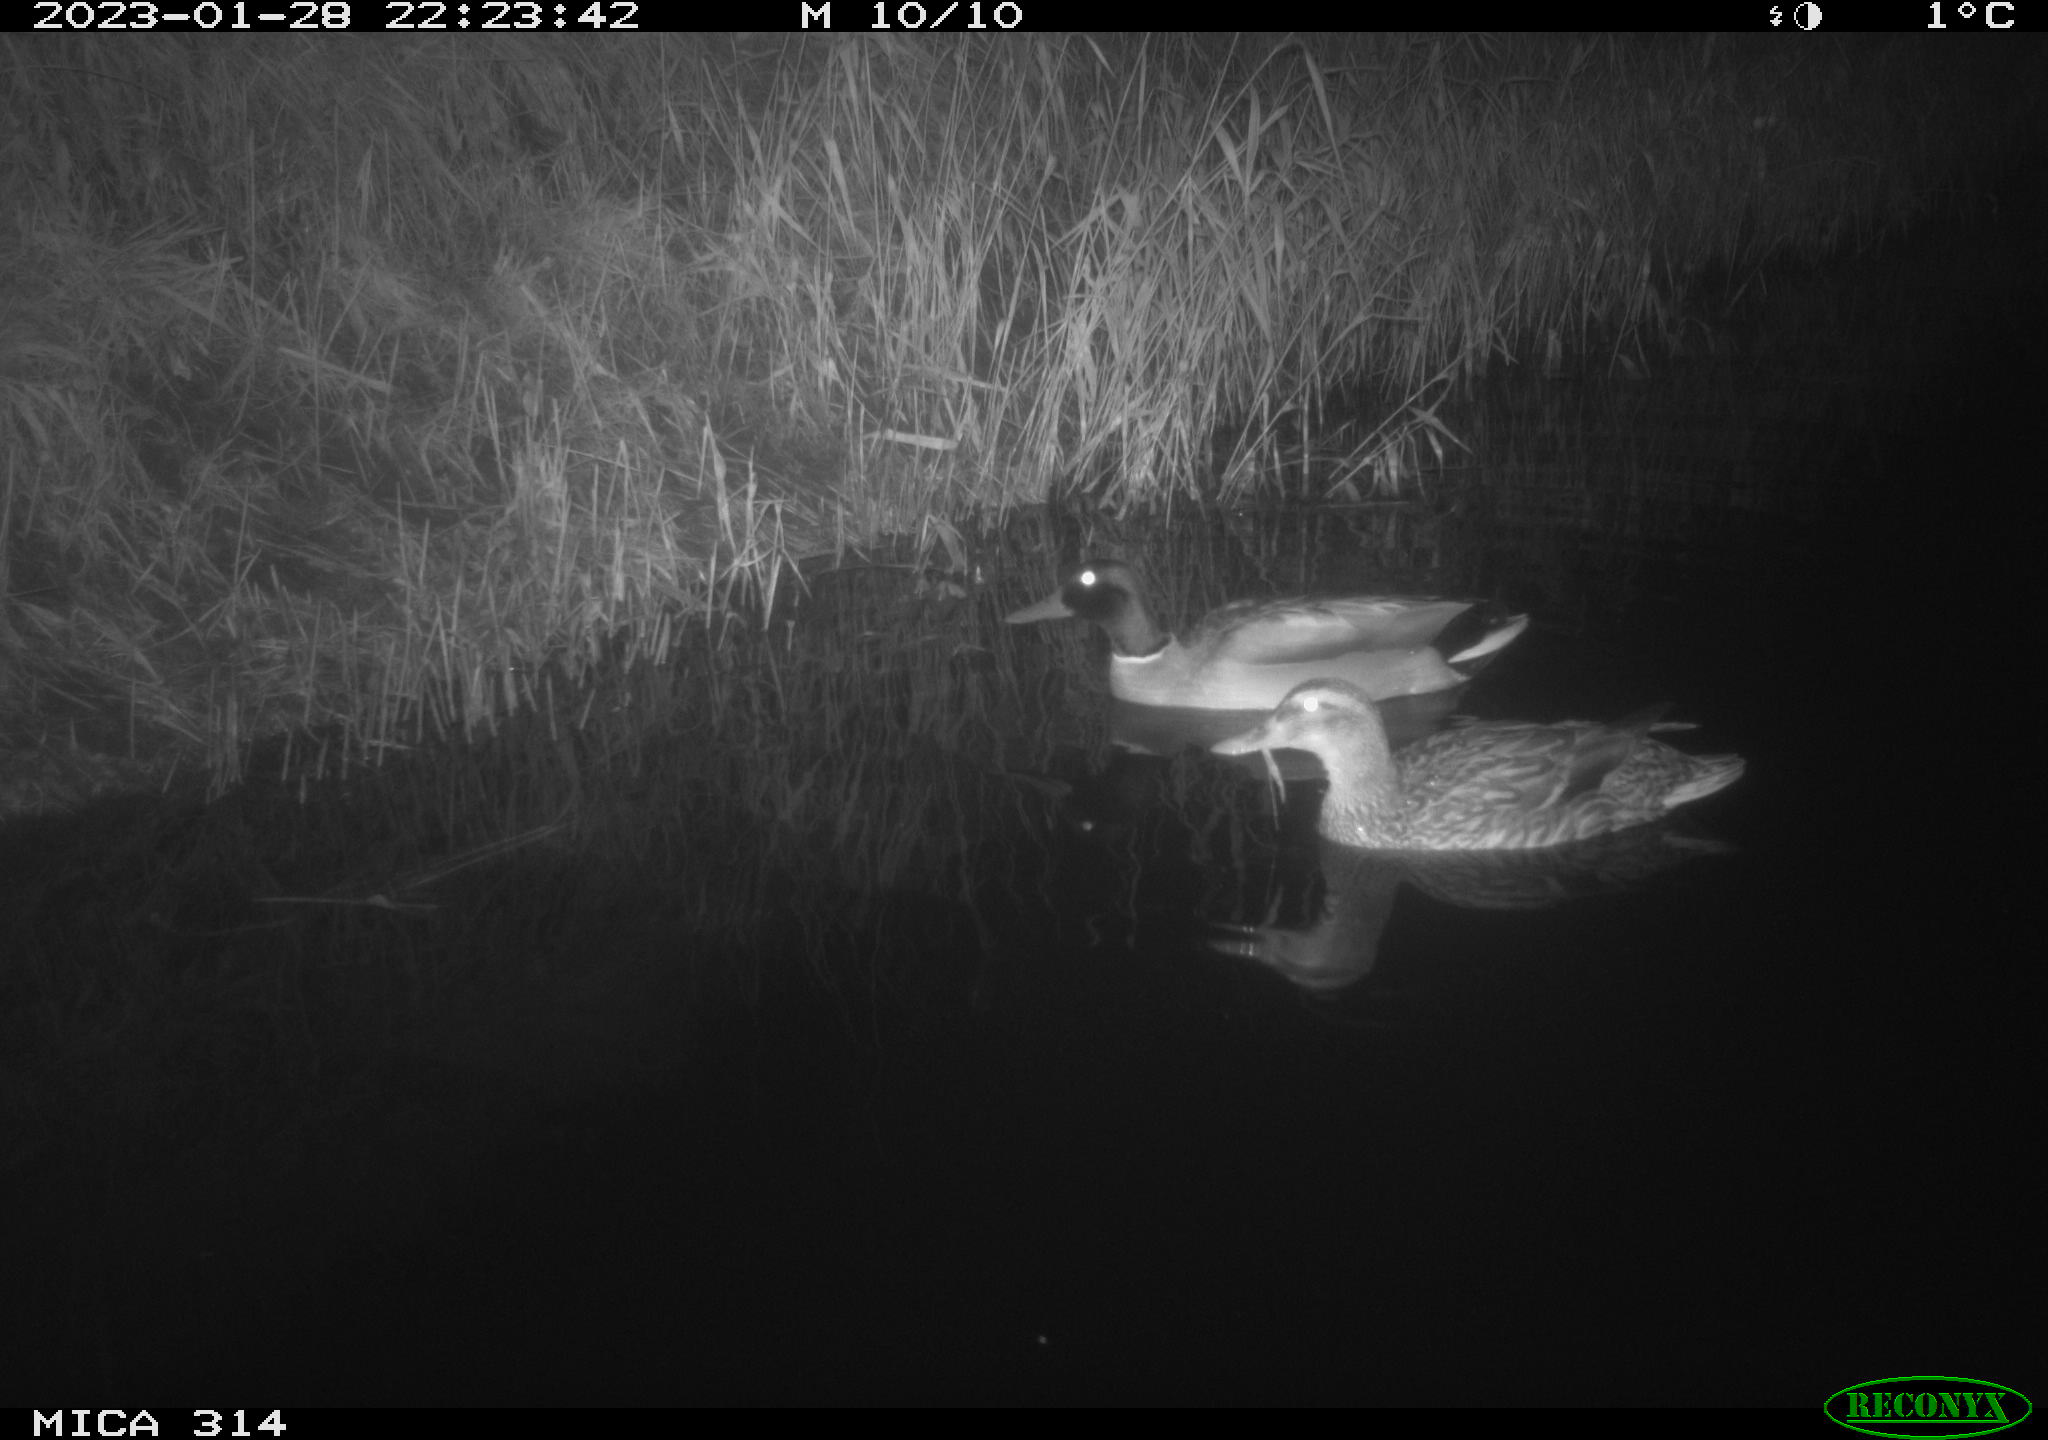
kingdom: Animalia
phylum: Chordata
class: Aves
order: Anseriformes
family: Anatidae
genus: Anas
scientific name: Anas
